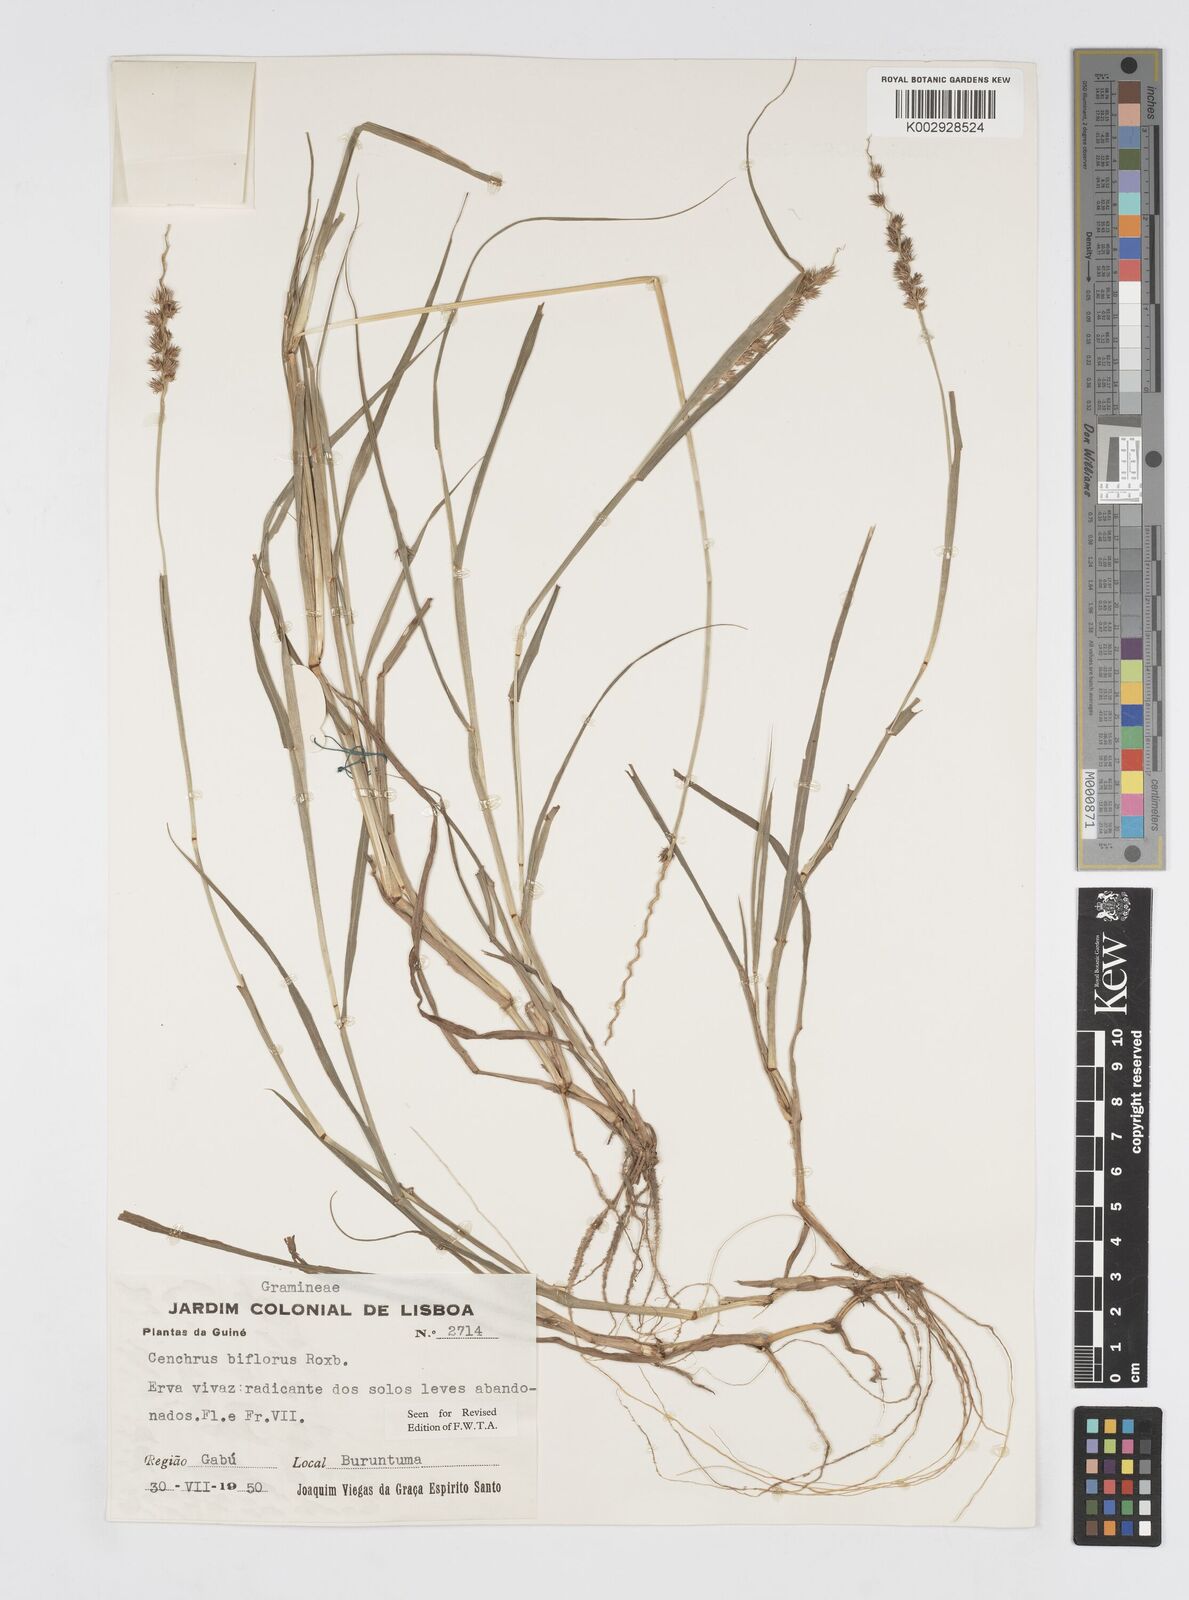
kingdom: Plantae
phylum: Tracheophyta
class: Liliopsida
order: Poales
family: Poaceae
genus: Cenchrus
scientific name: Cenchrus biflorus
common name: Indian sandbur
